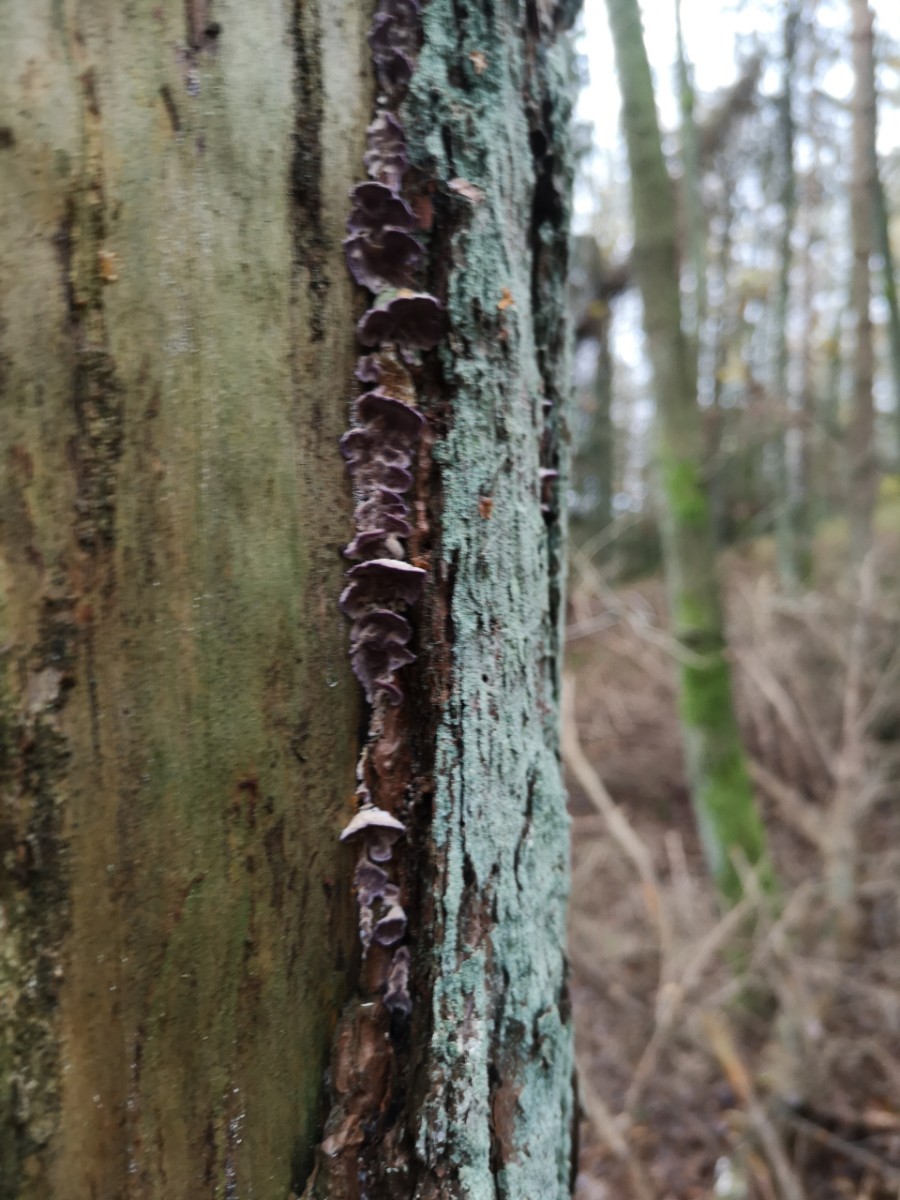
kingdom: Fungi
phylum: Basidiomycota
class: Agaricomycetes
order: Polyporales
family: Polyporaceae
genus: Trichaptum
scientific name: Trichaptum
